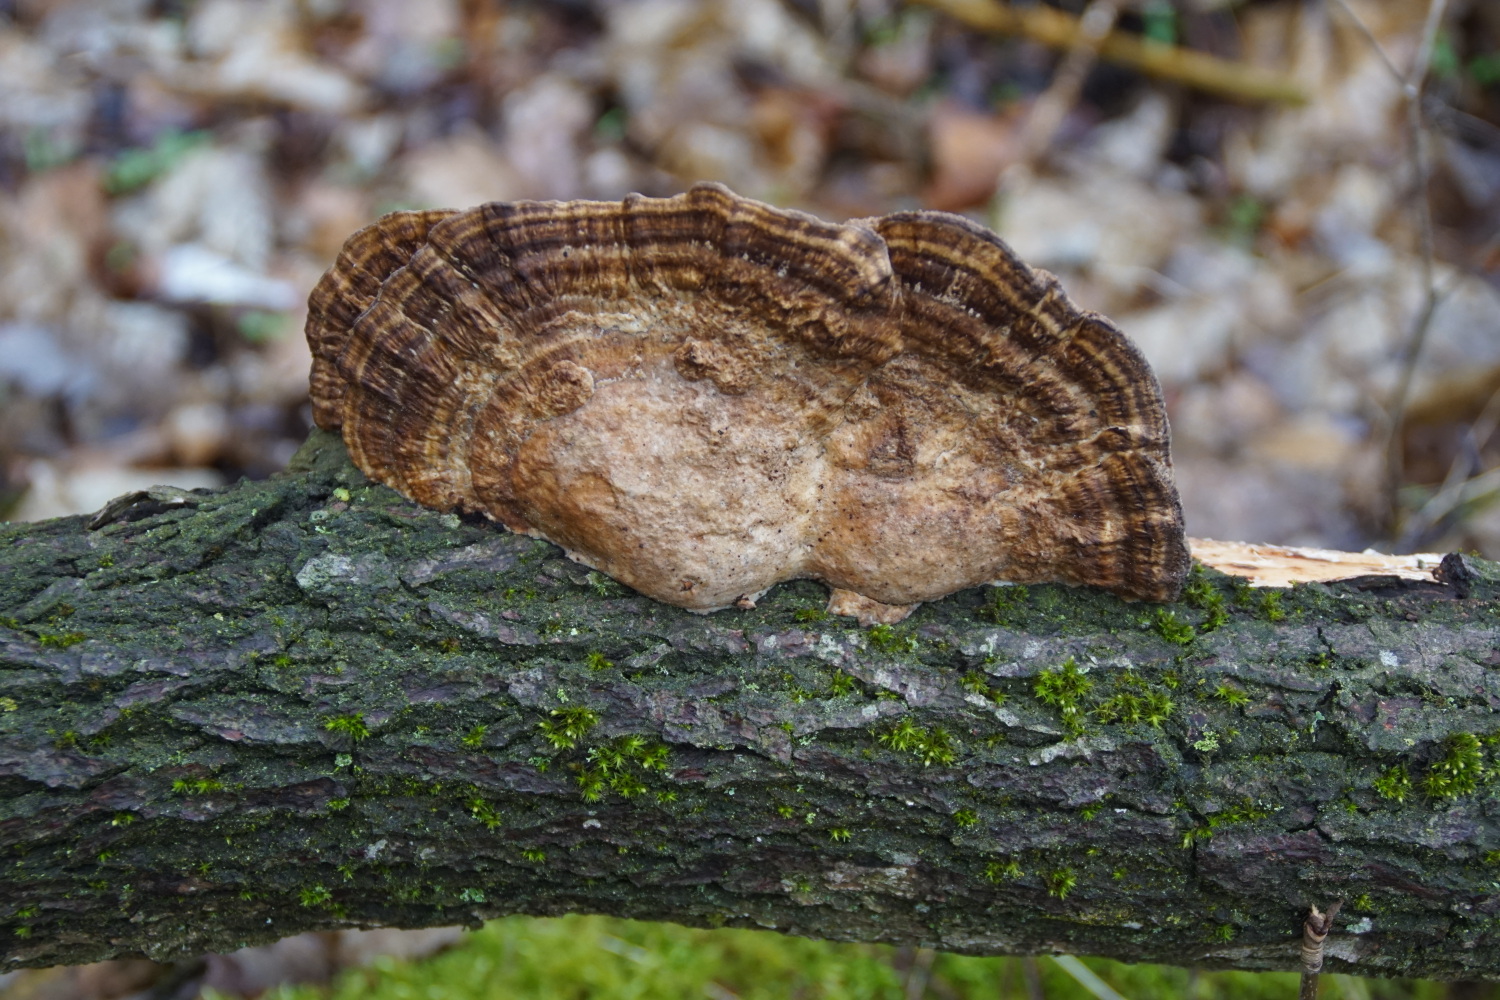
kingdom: Fungi
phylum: Basidiomycota
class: Agaricomycetes
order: Polyporales
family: Polyporaceae
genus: Daedaleopsis
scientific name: Daedaleopsis confragosa
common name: rødmende læderporesvamp
